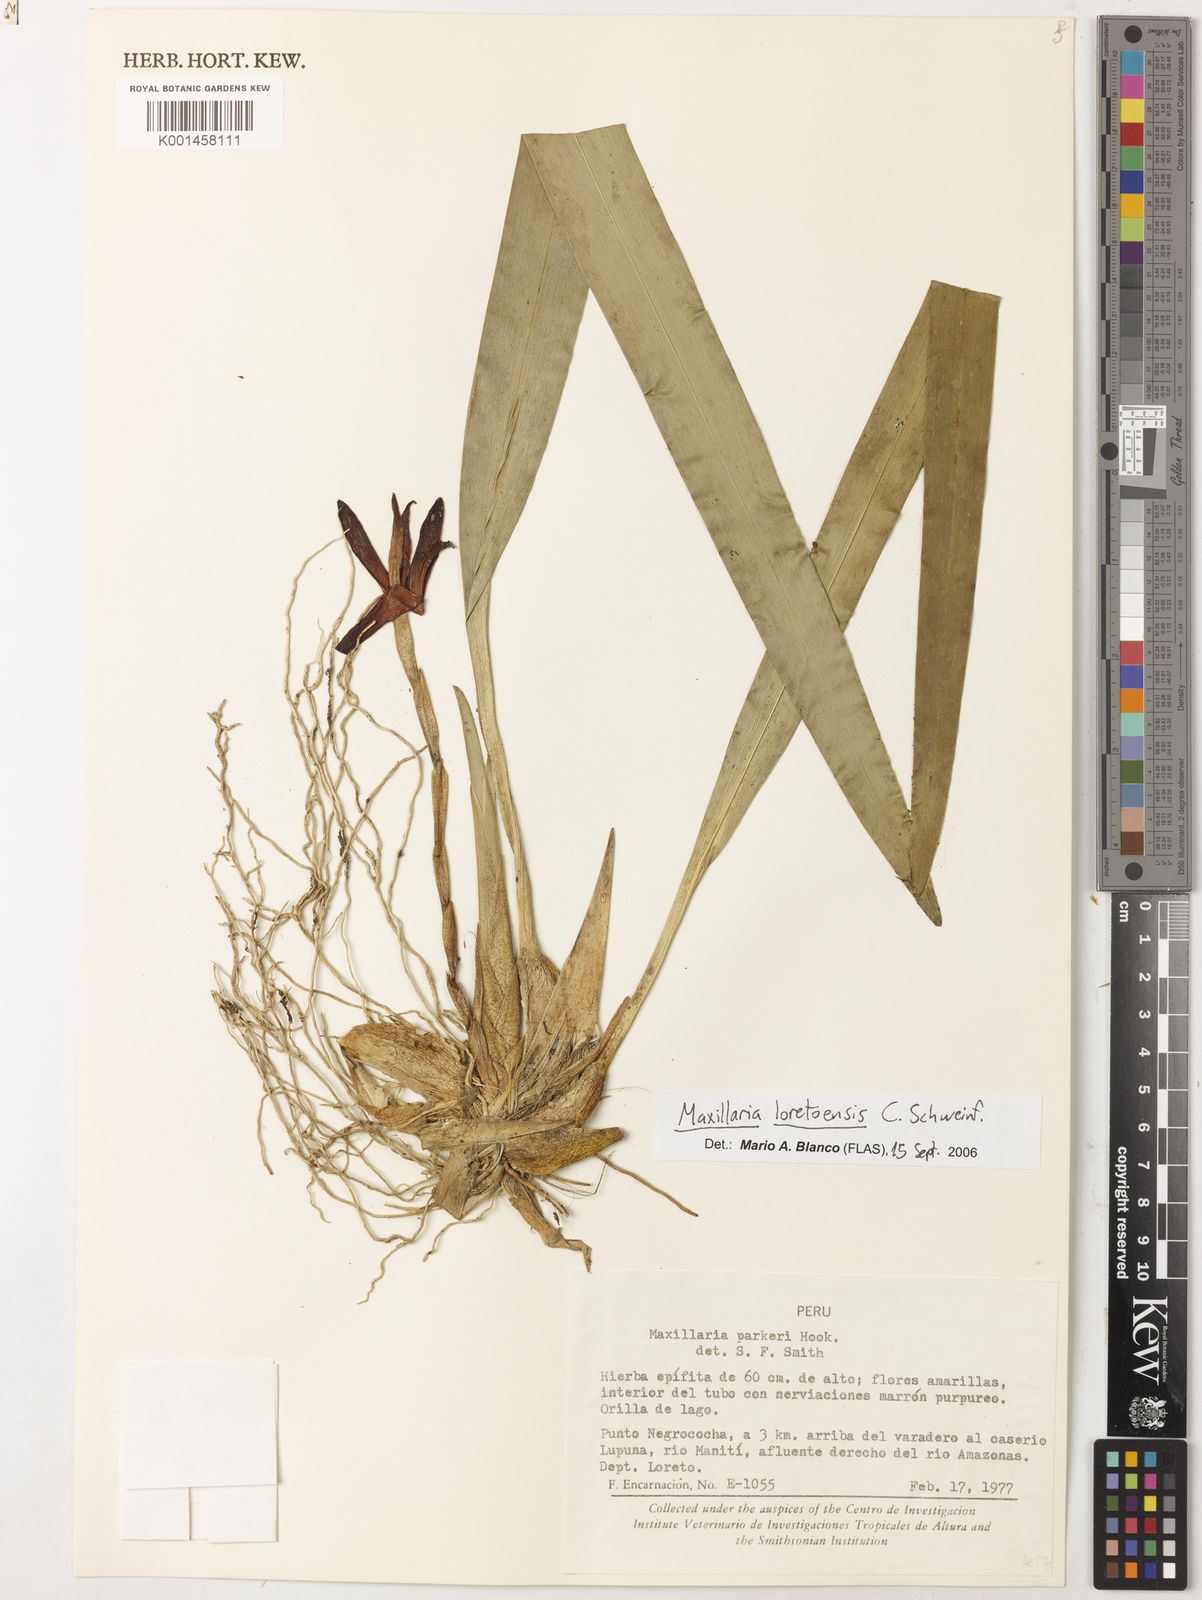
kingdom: Plantae
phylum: Tracheophyta
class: Liliopsida
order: Asparagales
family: Orchidaceae
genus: Maxillaria
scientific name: Maxillaria parkeri
